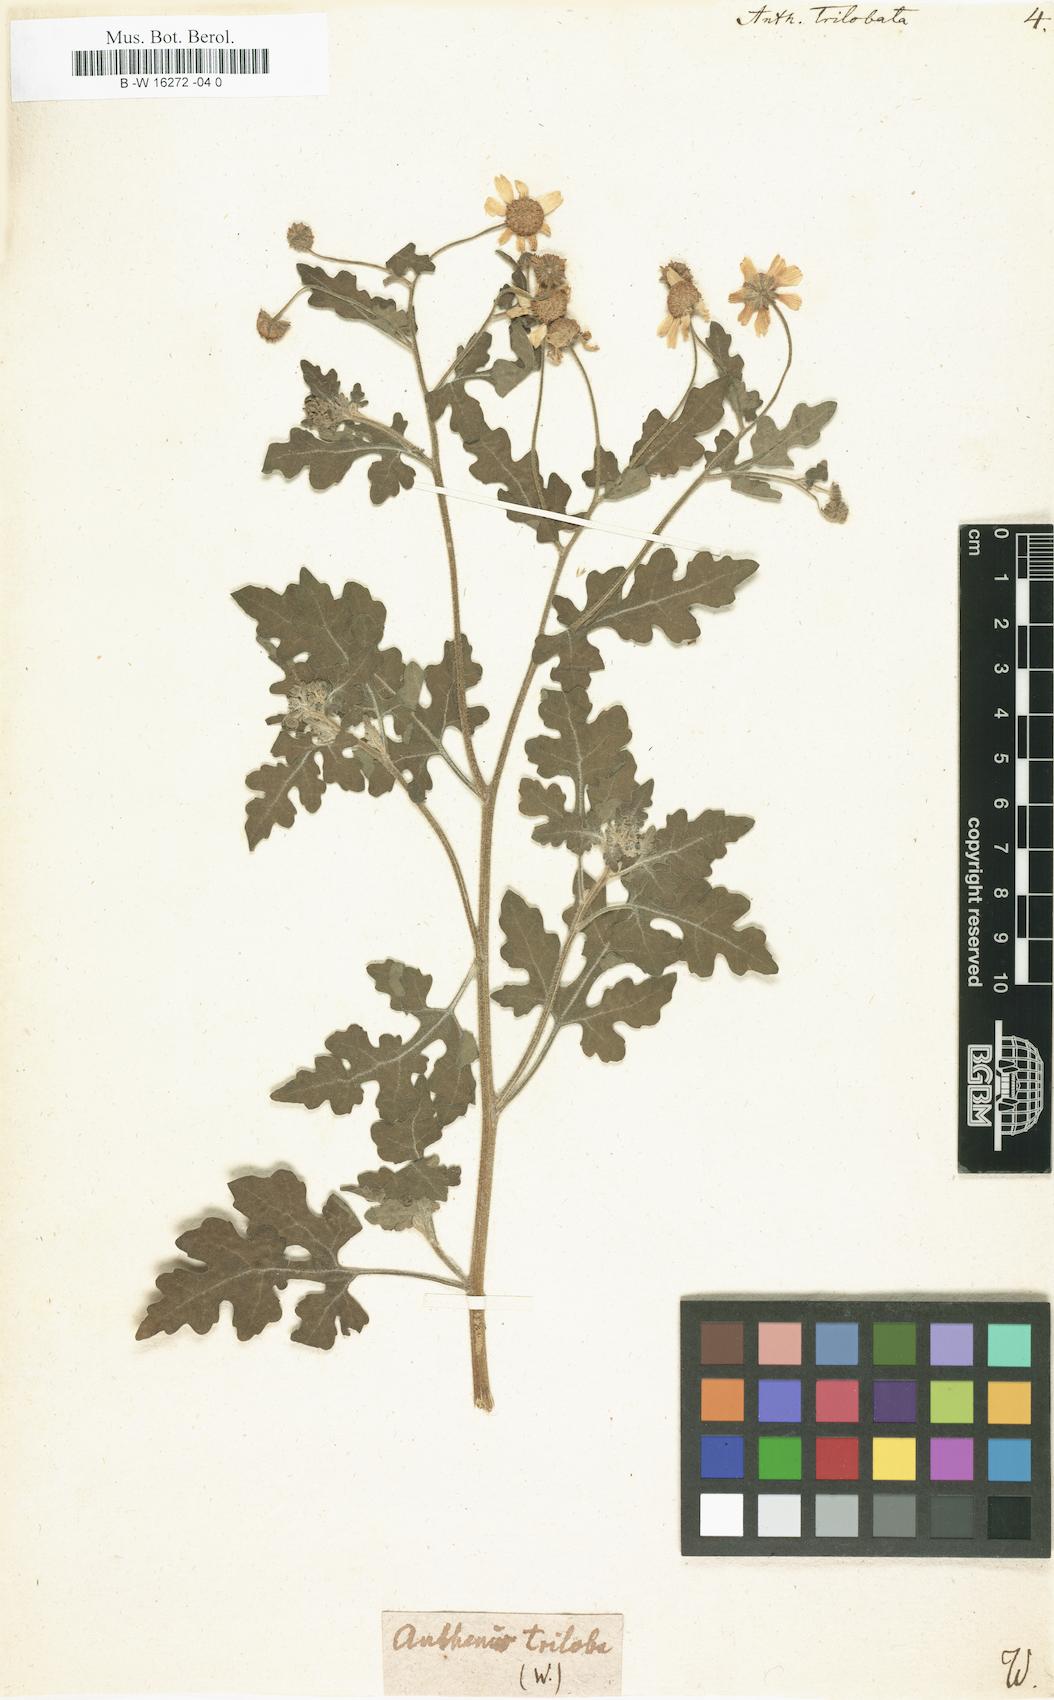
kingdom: Plantae
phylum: Tracheophyta
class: Magnoliopsida
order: Asterales
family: Asteraceae
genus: Zaluzania
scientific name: Zaluzania triloba
